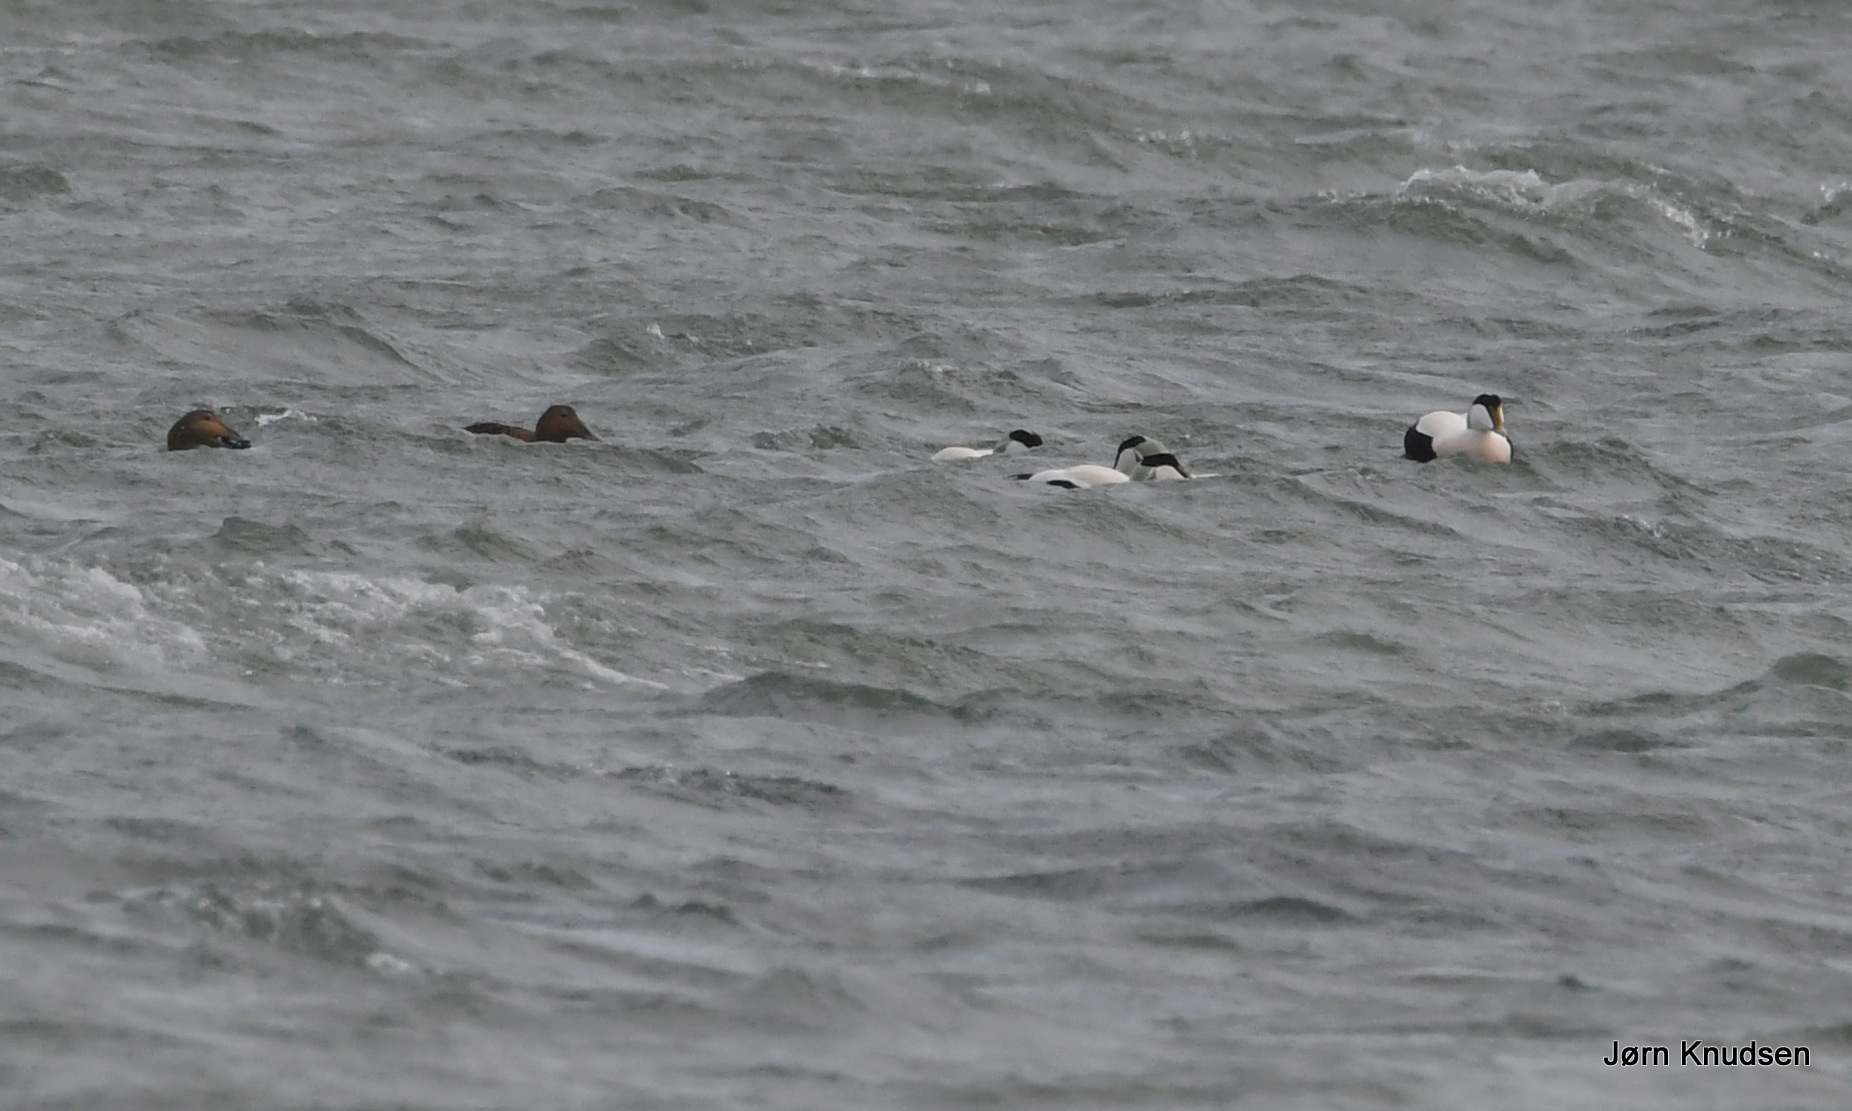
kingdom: Animalia
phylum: Chordata
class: Aves
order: Anseriformes
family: Anatidae
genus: Somateria
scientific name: Somateria mollissima
